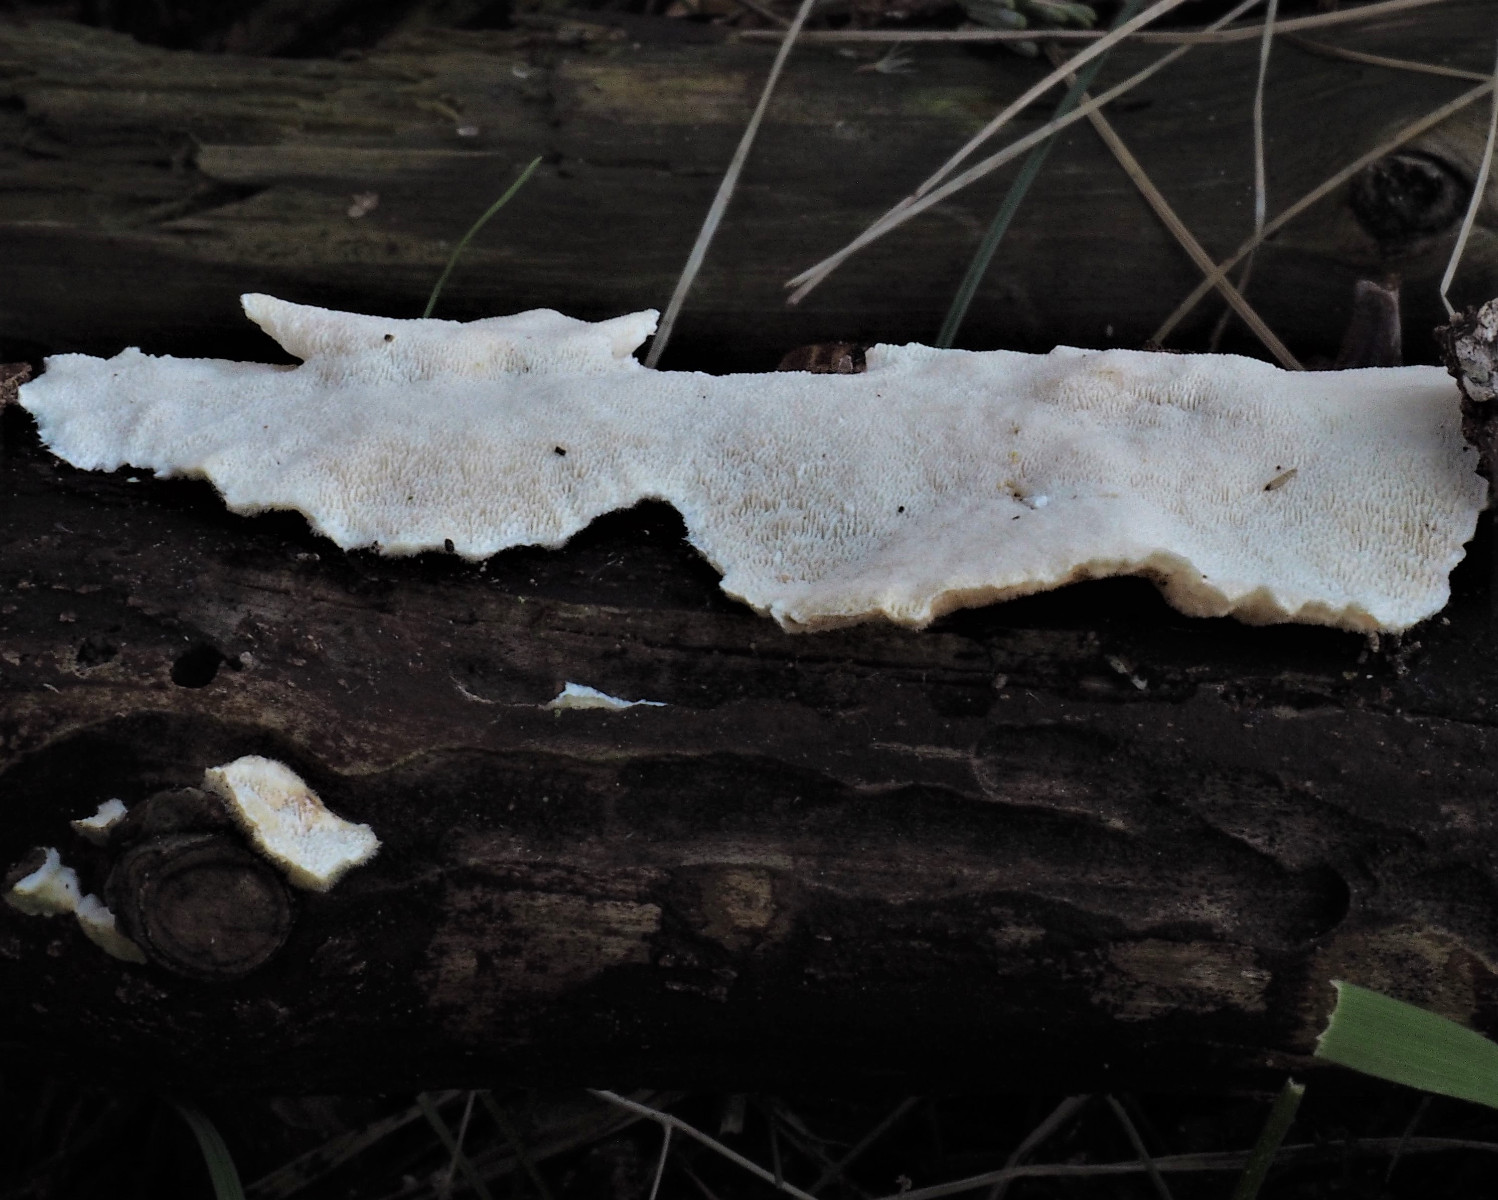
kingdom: Fungi
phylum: Basidiomycota
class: Agaricomycetes
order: Polyporales
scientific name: Polyporales
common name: poresvampordenen
